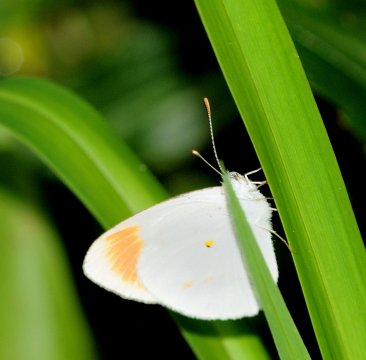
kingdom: Animalia
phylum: Arthropoda
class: Insecta
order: Lepidoptera
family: Pieridae
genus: Colotis
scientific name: Colotis antevippe
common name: Red Tip
